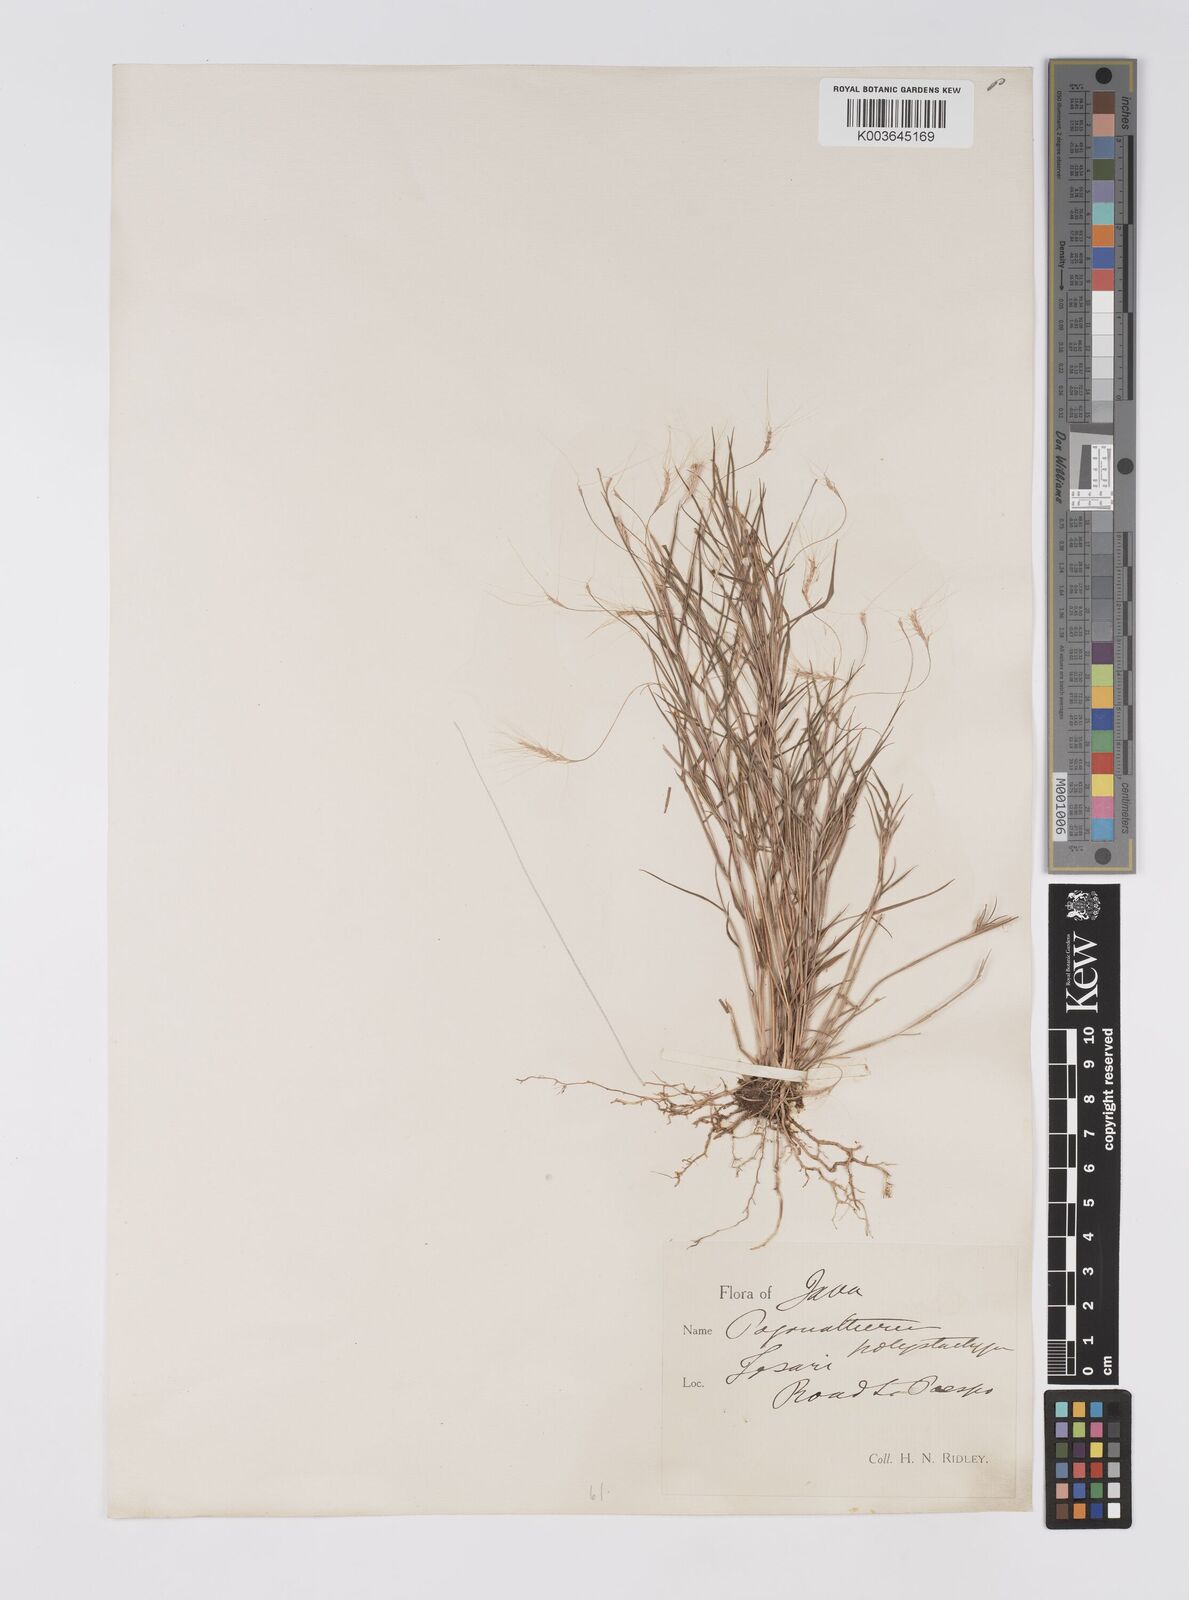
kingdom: Plantae
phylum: Tracheophyta
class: Liliopsida
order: Poales
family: Poaceae
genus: Pogonatherum
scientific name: Pogonatherum crinitum
